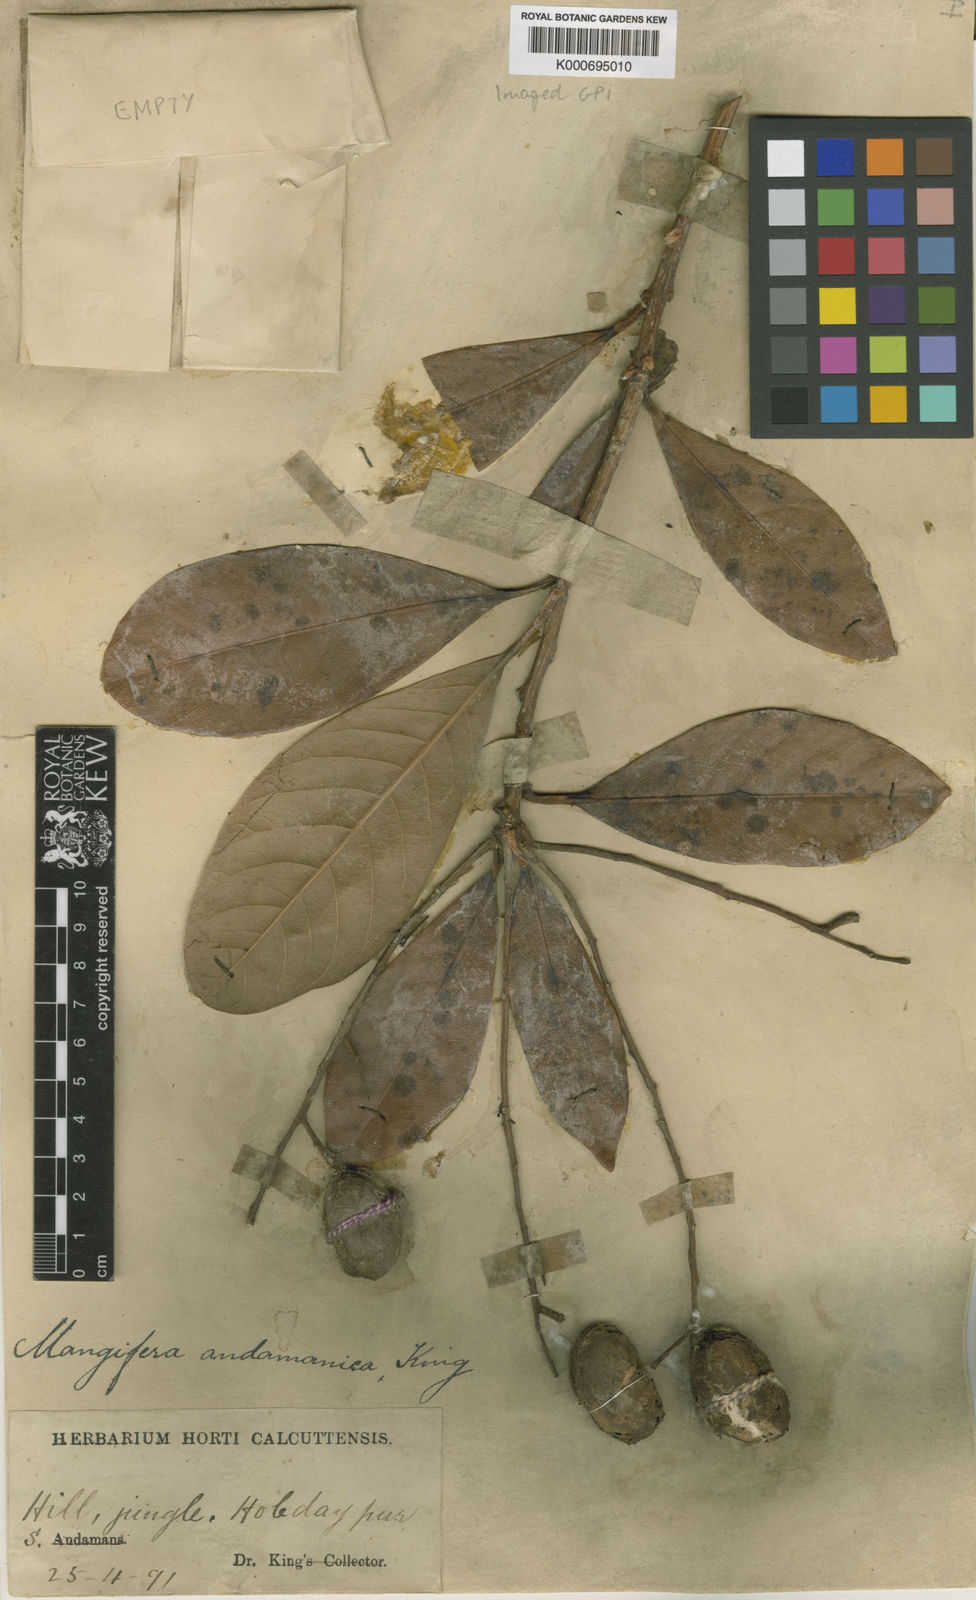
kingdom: Plantae
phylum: Tracheophyta
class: Magnoliopsida
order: Sapindales
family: Anacardiaceae
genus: Mangifera
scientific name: Mangifera andamanica
